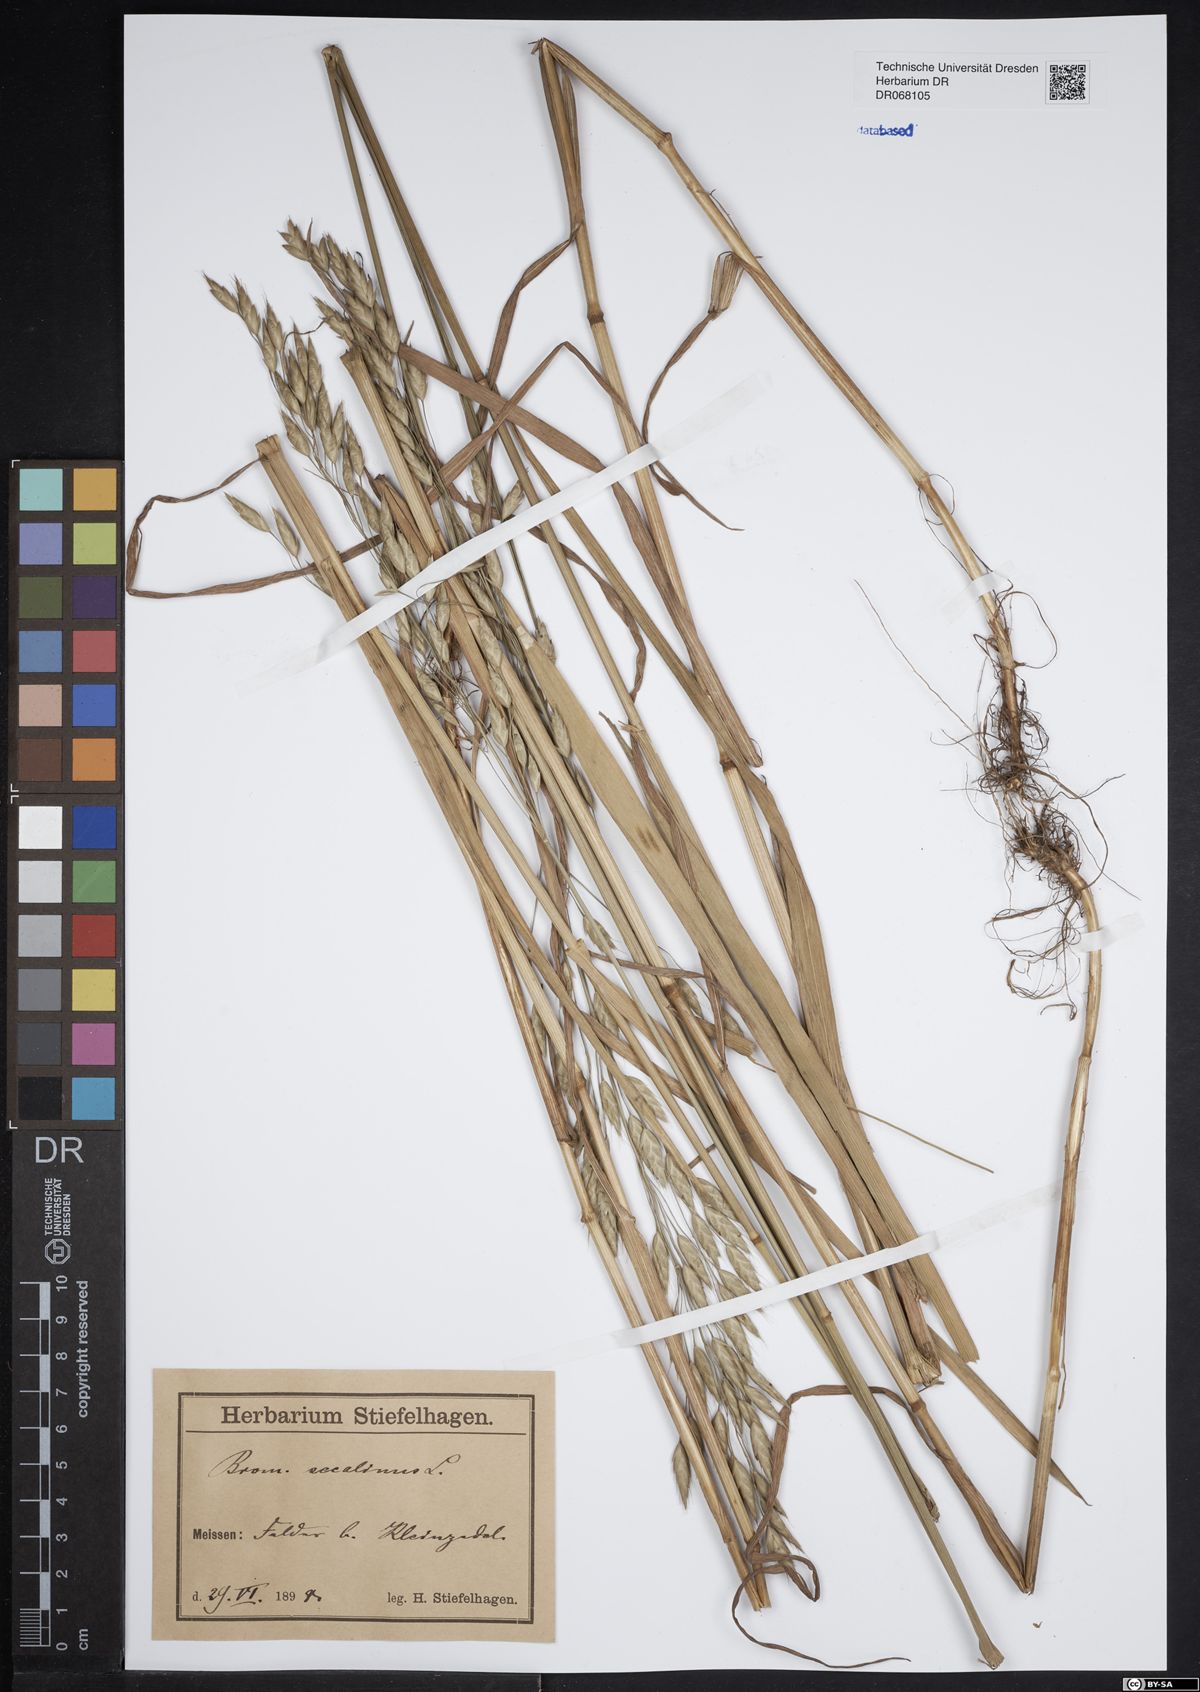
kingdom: Plantae
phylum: Tracheophyta
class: Liliopsida
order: Poales
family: Poaceae
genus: Bromus
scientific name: Bromus secalinus
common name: Rye brome
